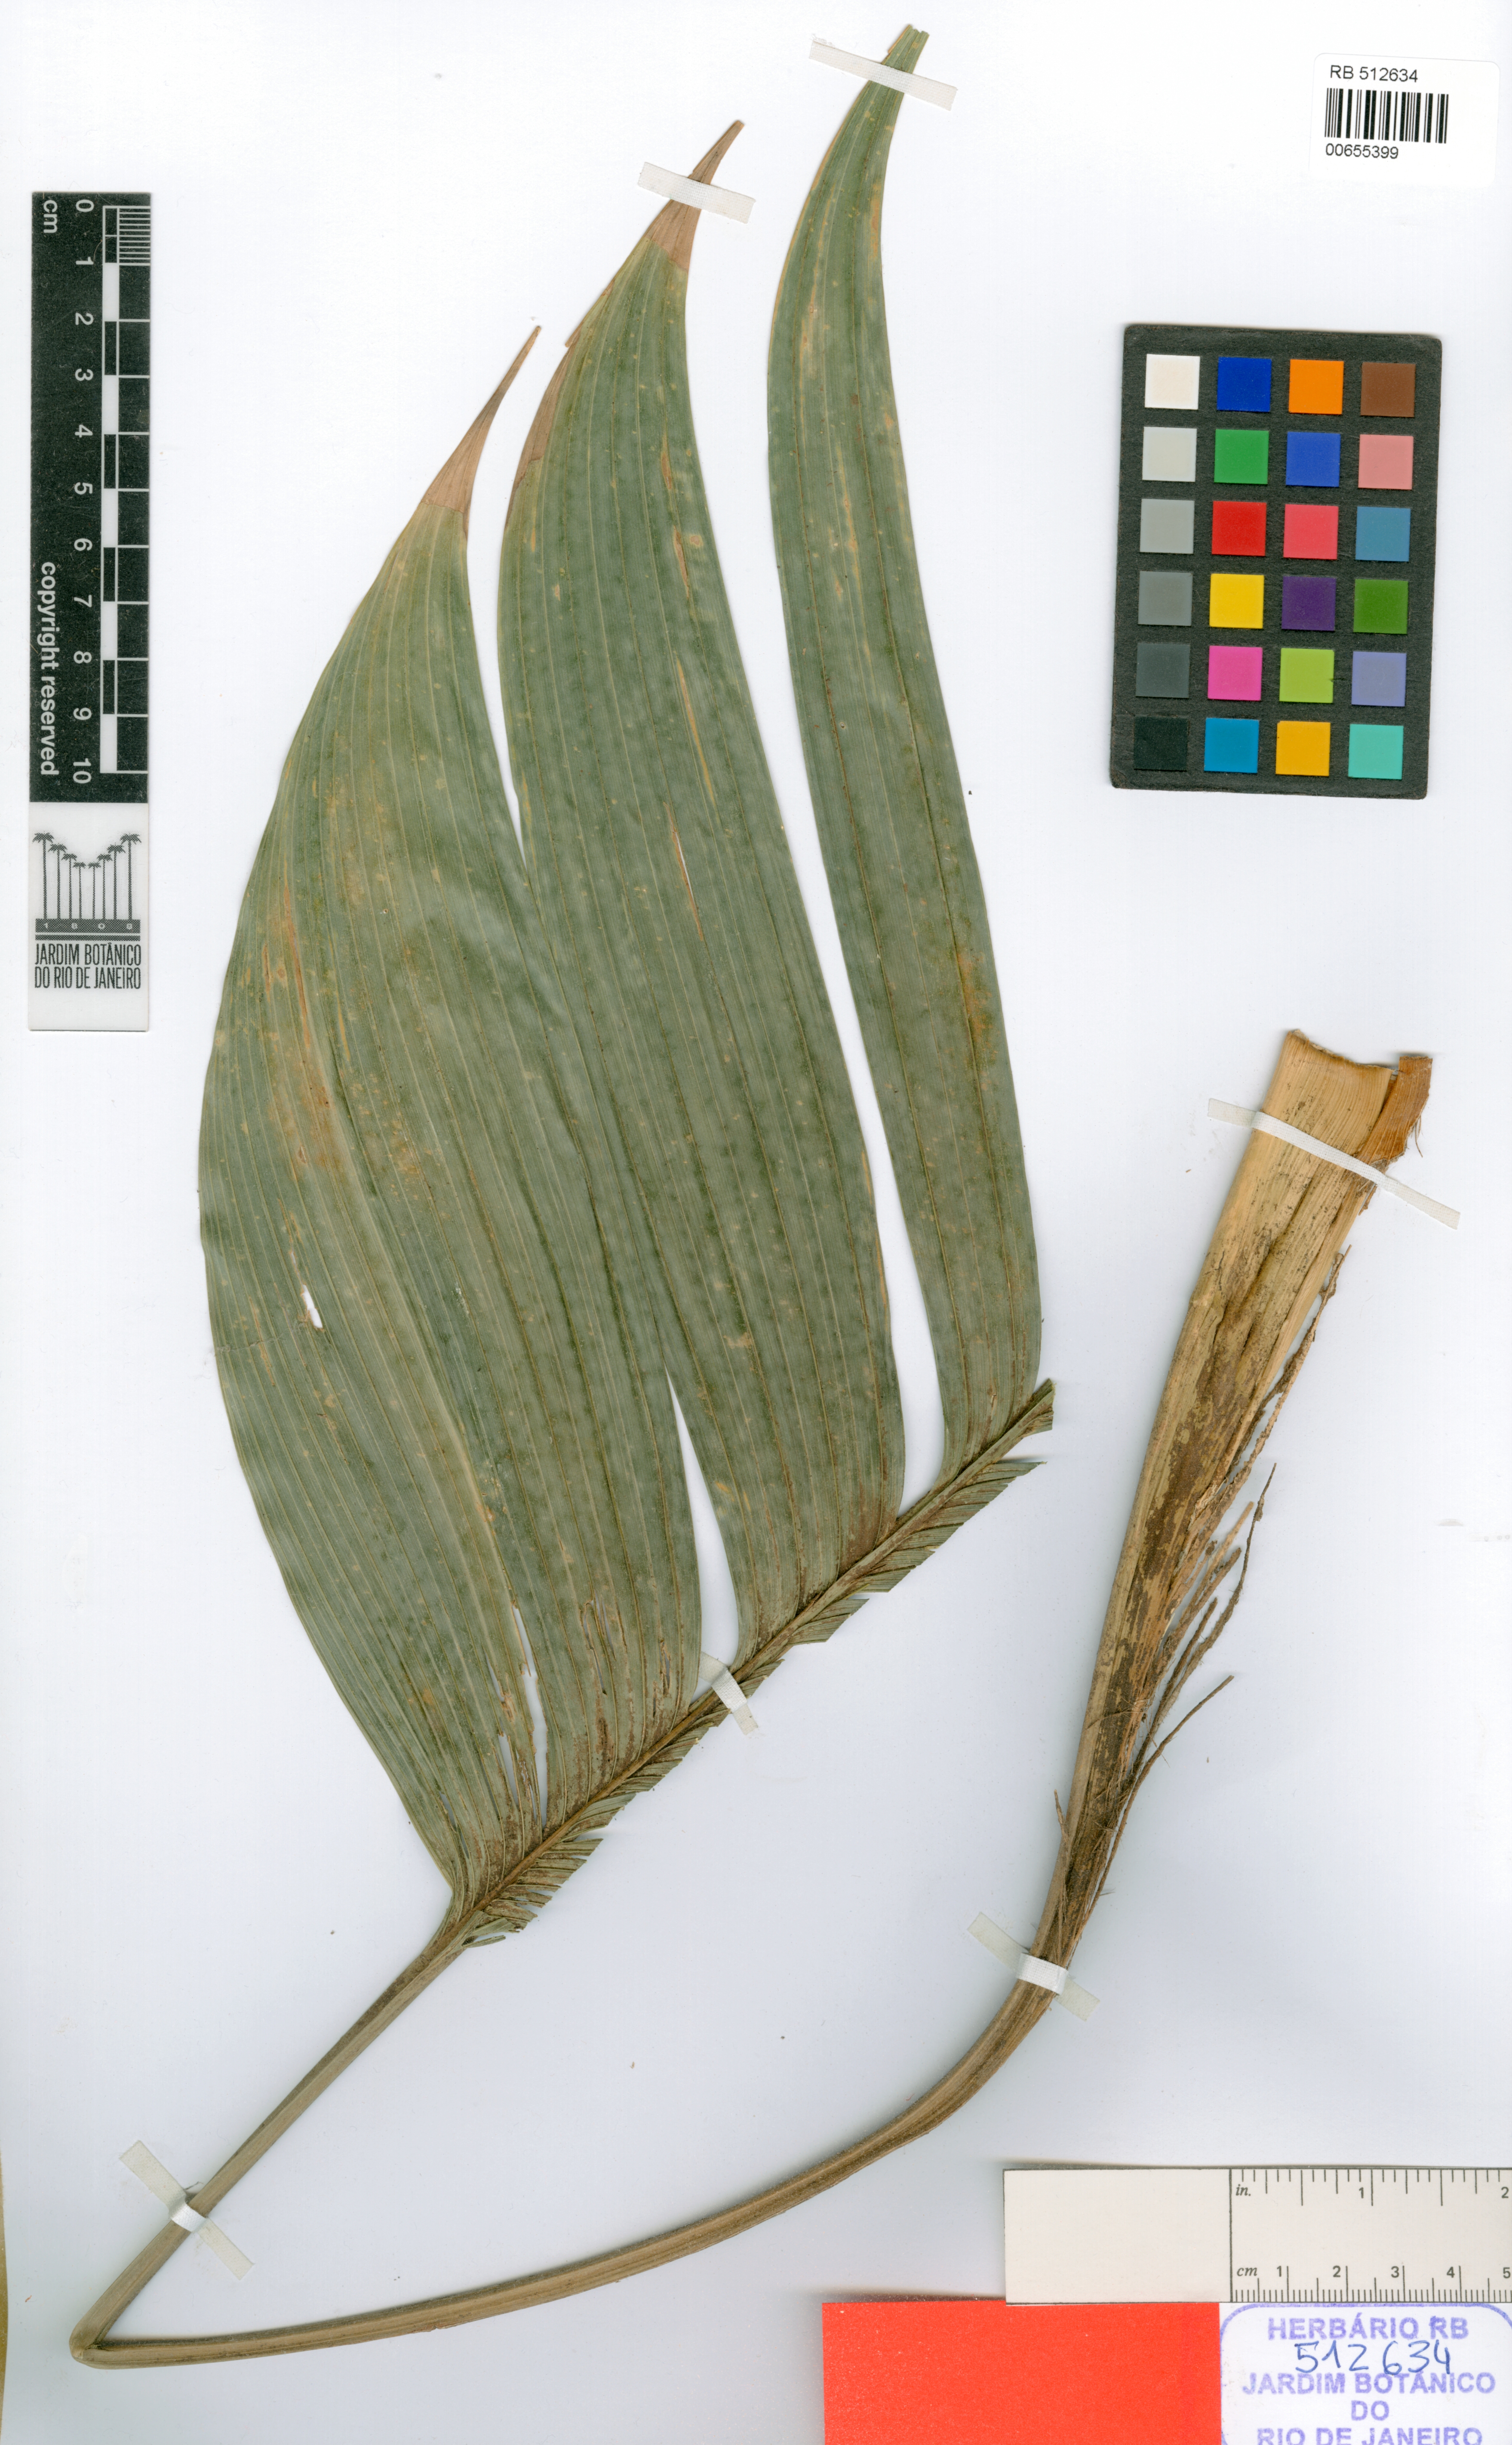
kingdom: Plantae
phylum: Tracheophyta
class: Liliopsida
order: Arecales
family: Arecaceae
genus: Geonoma
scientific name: Geonoma pohliana
